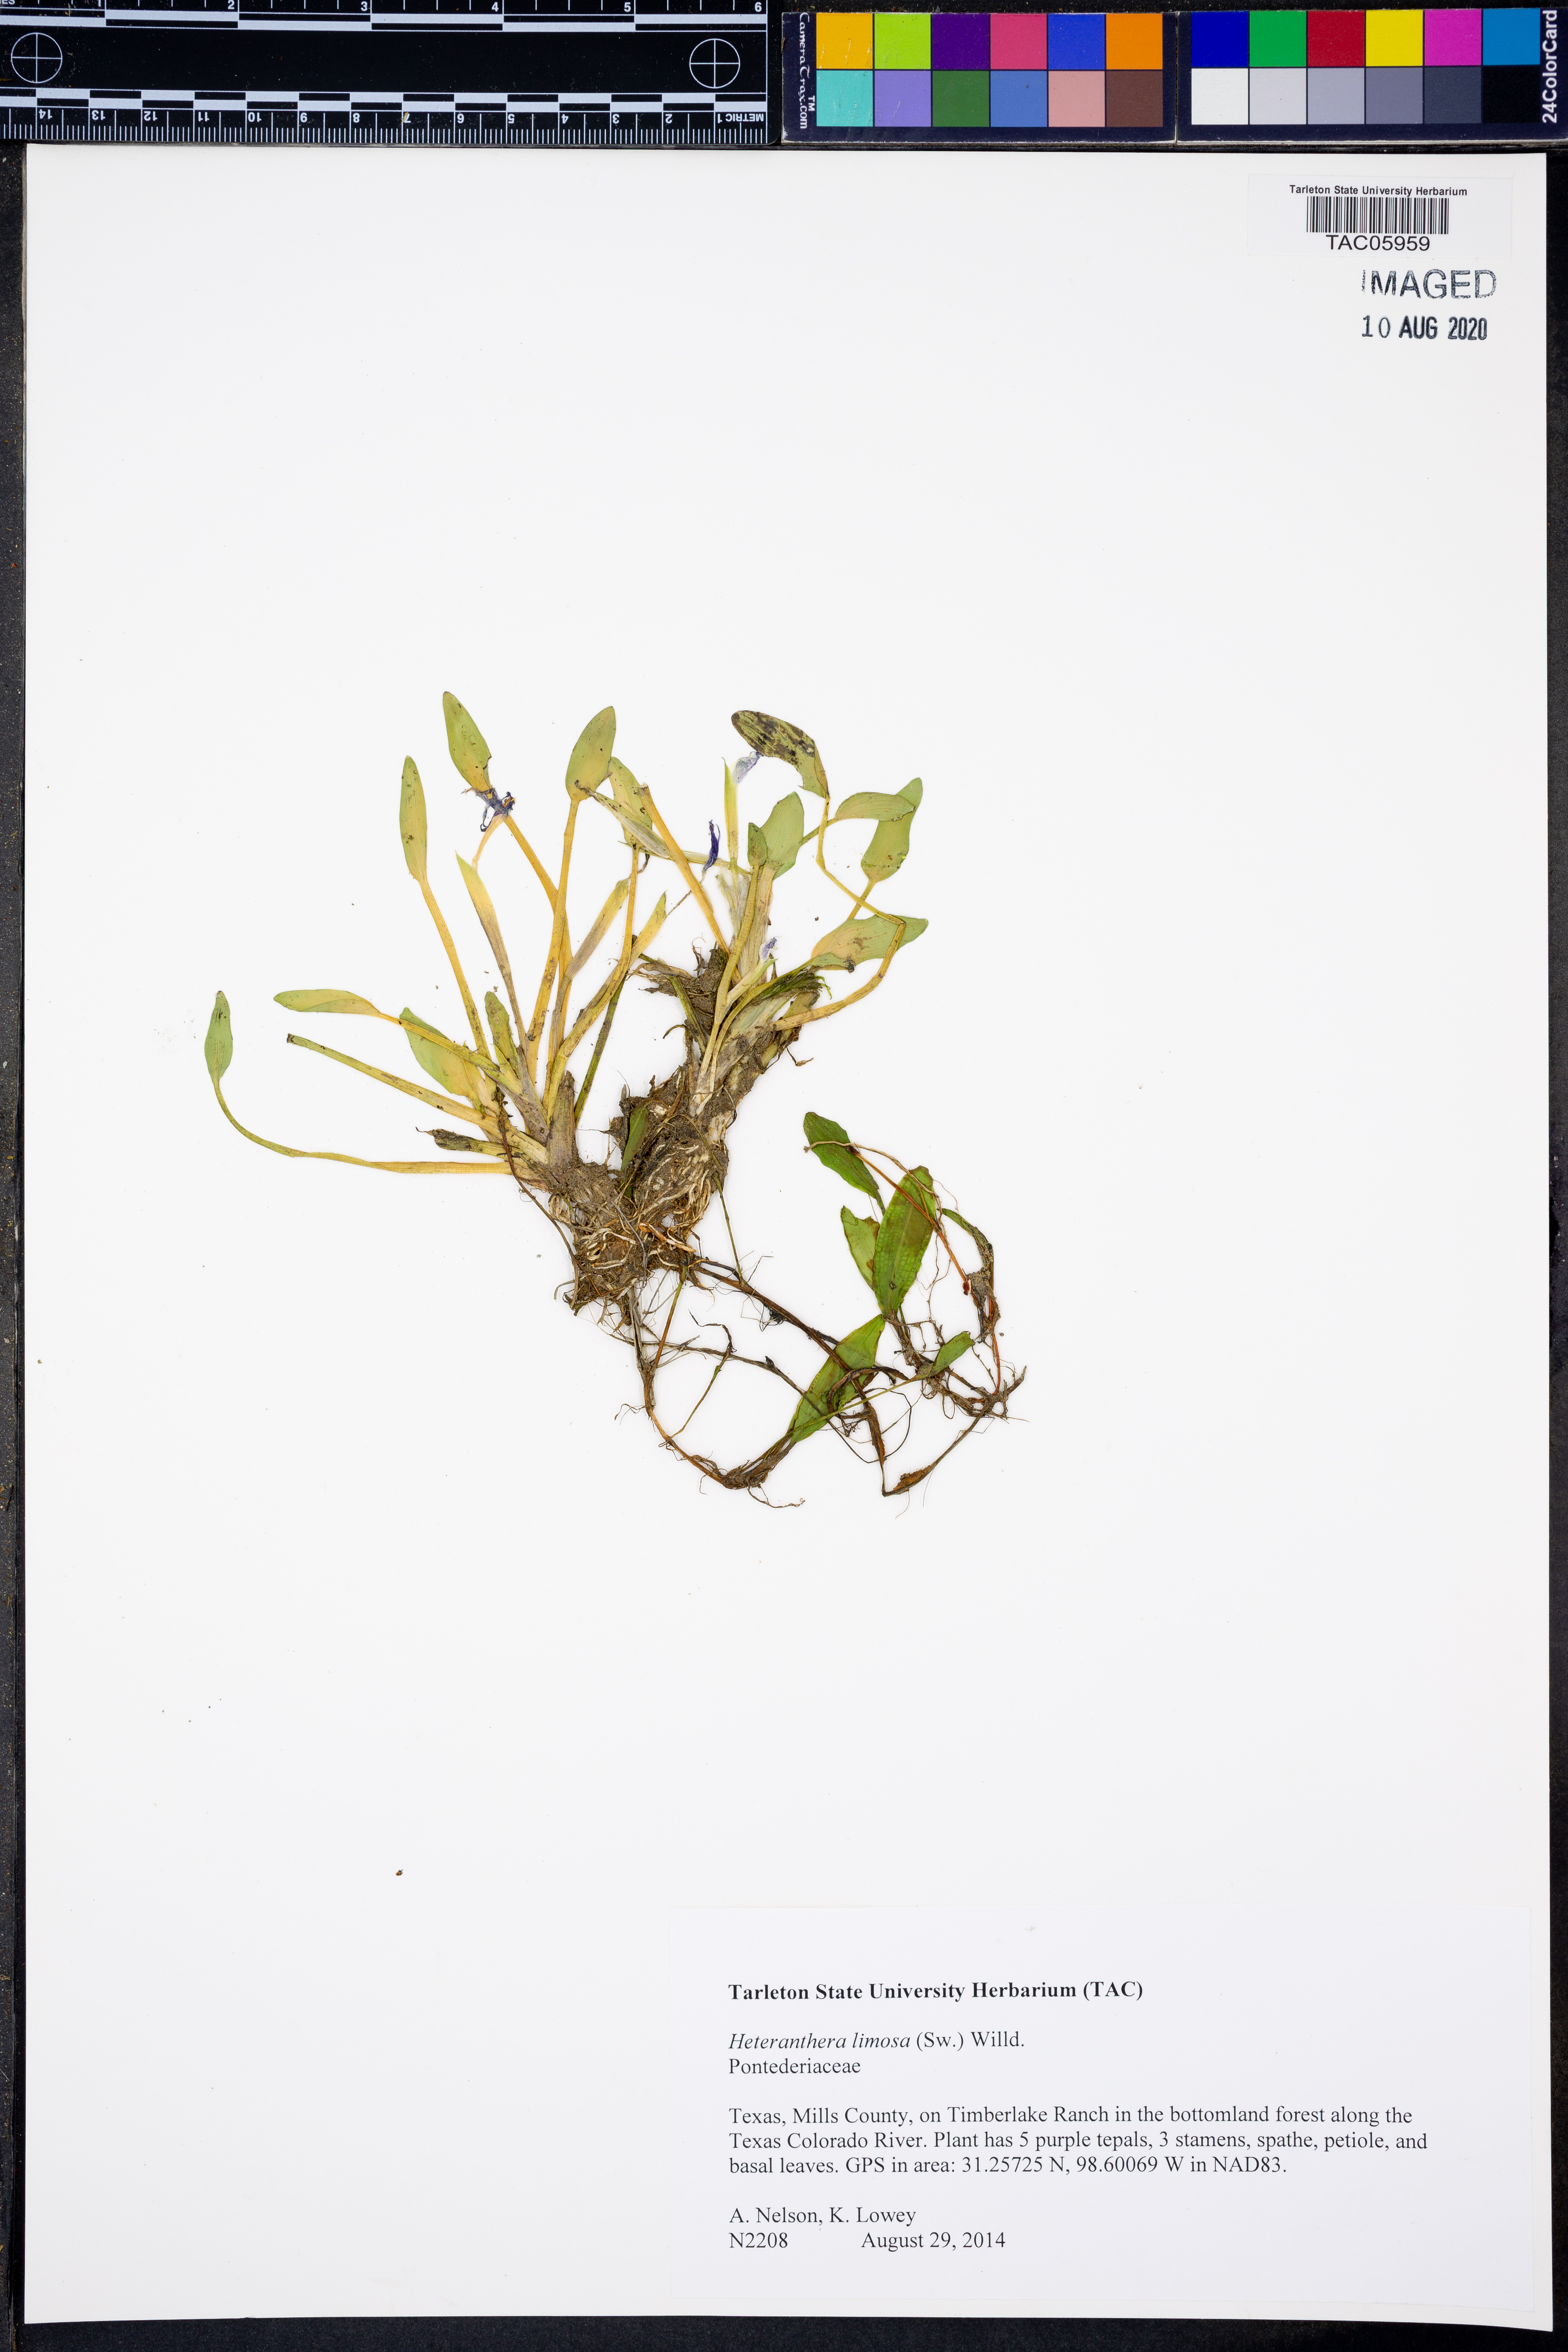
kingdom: Plantae
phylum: Tracheophyta
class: Liliopsida
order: Commelinales
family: Pontederiaceae
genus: Heteranthera
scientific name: Heteranthera limosa
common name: Blue mud-plantain
